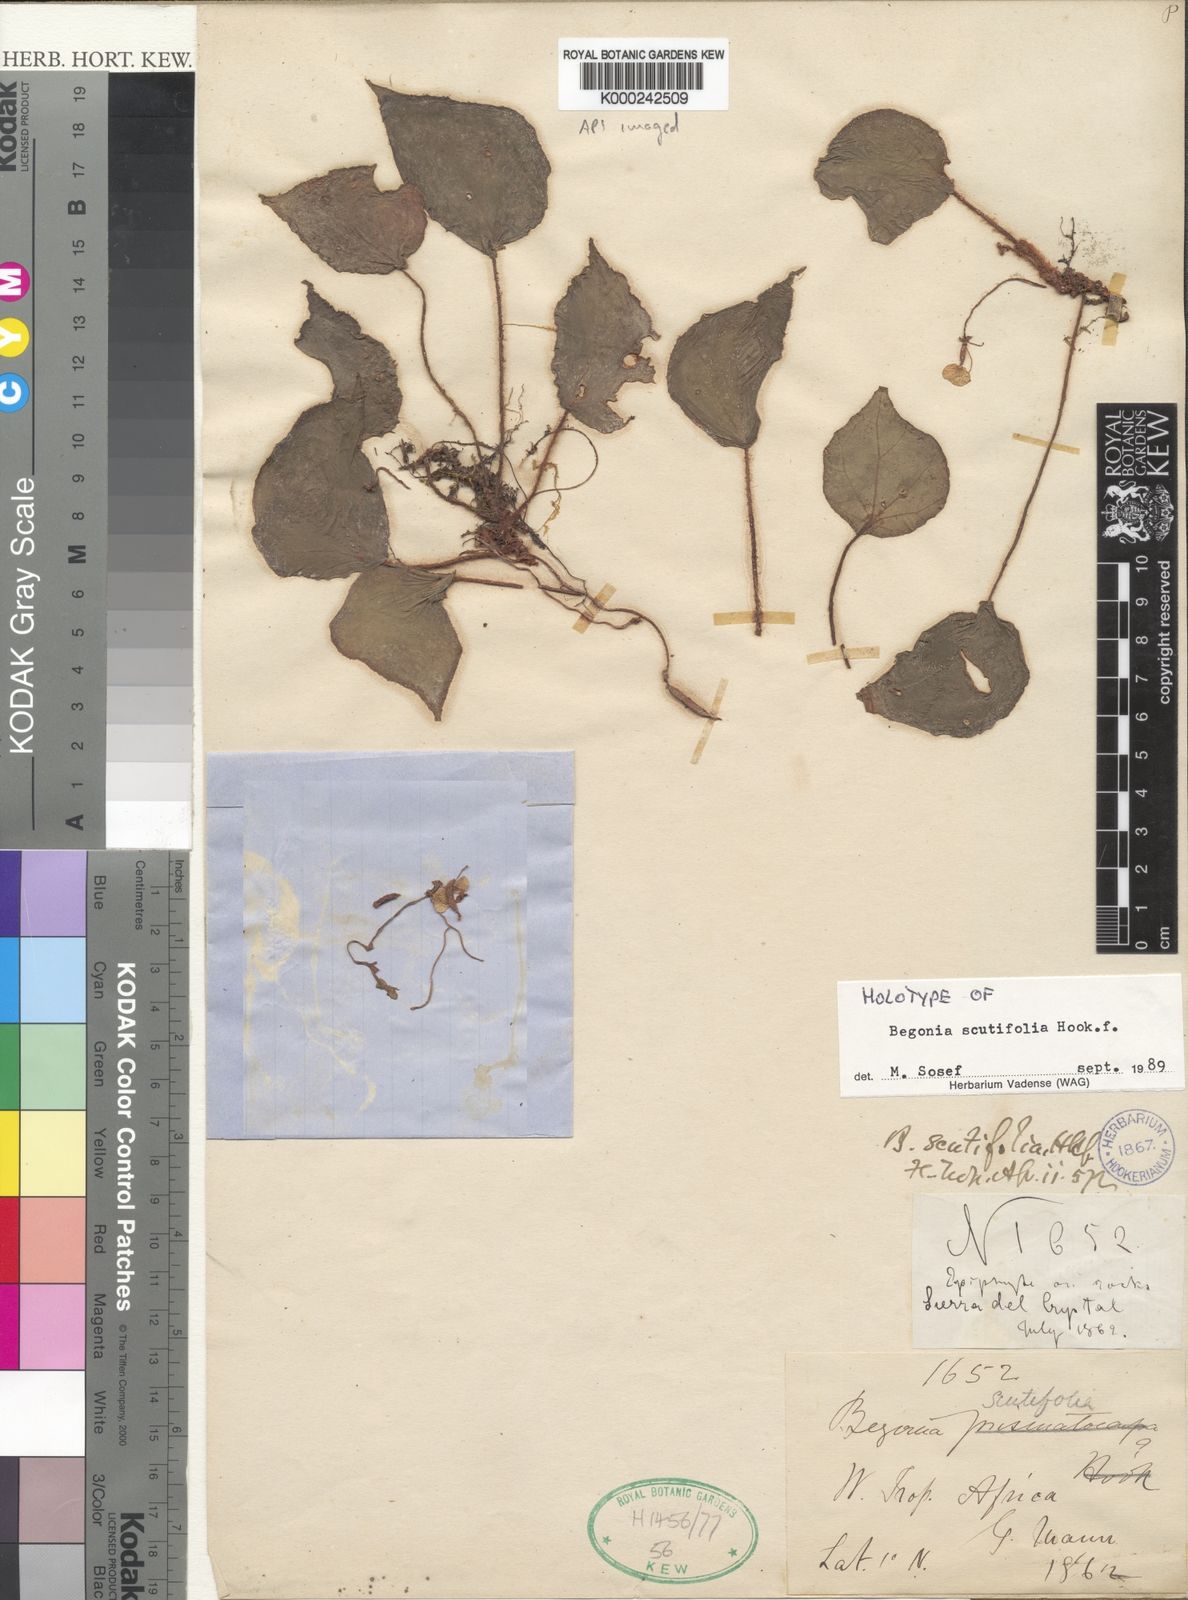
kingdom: Plantae
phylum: Tracheophyta
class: Magnoliopsida
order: Cucurbitales
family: Begoniaceae
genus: Begonia
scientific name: Begonia scutifolia
